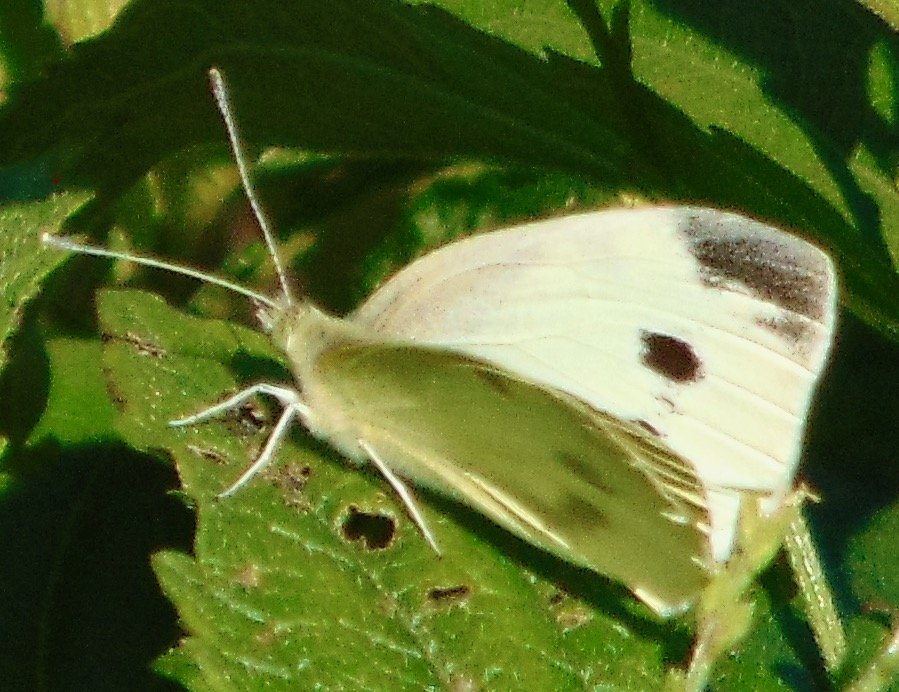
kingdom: Animalia
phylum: Arthropoda
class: Insecta
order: Lepidoptera
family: Pieridae
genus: Pieris
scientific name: Pieris rapae
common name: Cabbage White
